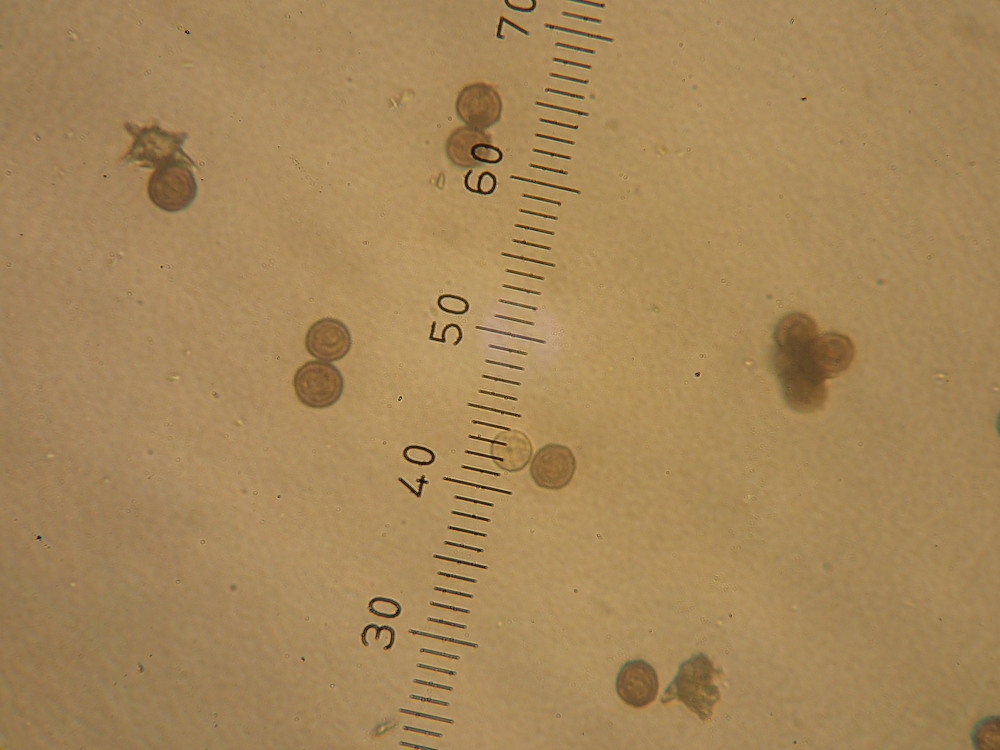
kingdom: Protozoa
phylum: Mycetozoa
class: Myxomycetes
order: Physarales
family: Didymiaceae
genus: Didymium
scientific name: Didymium melanospermum
